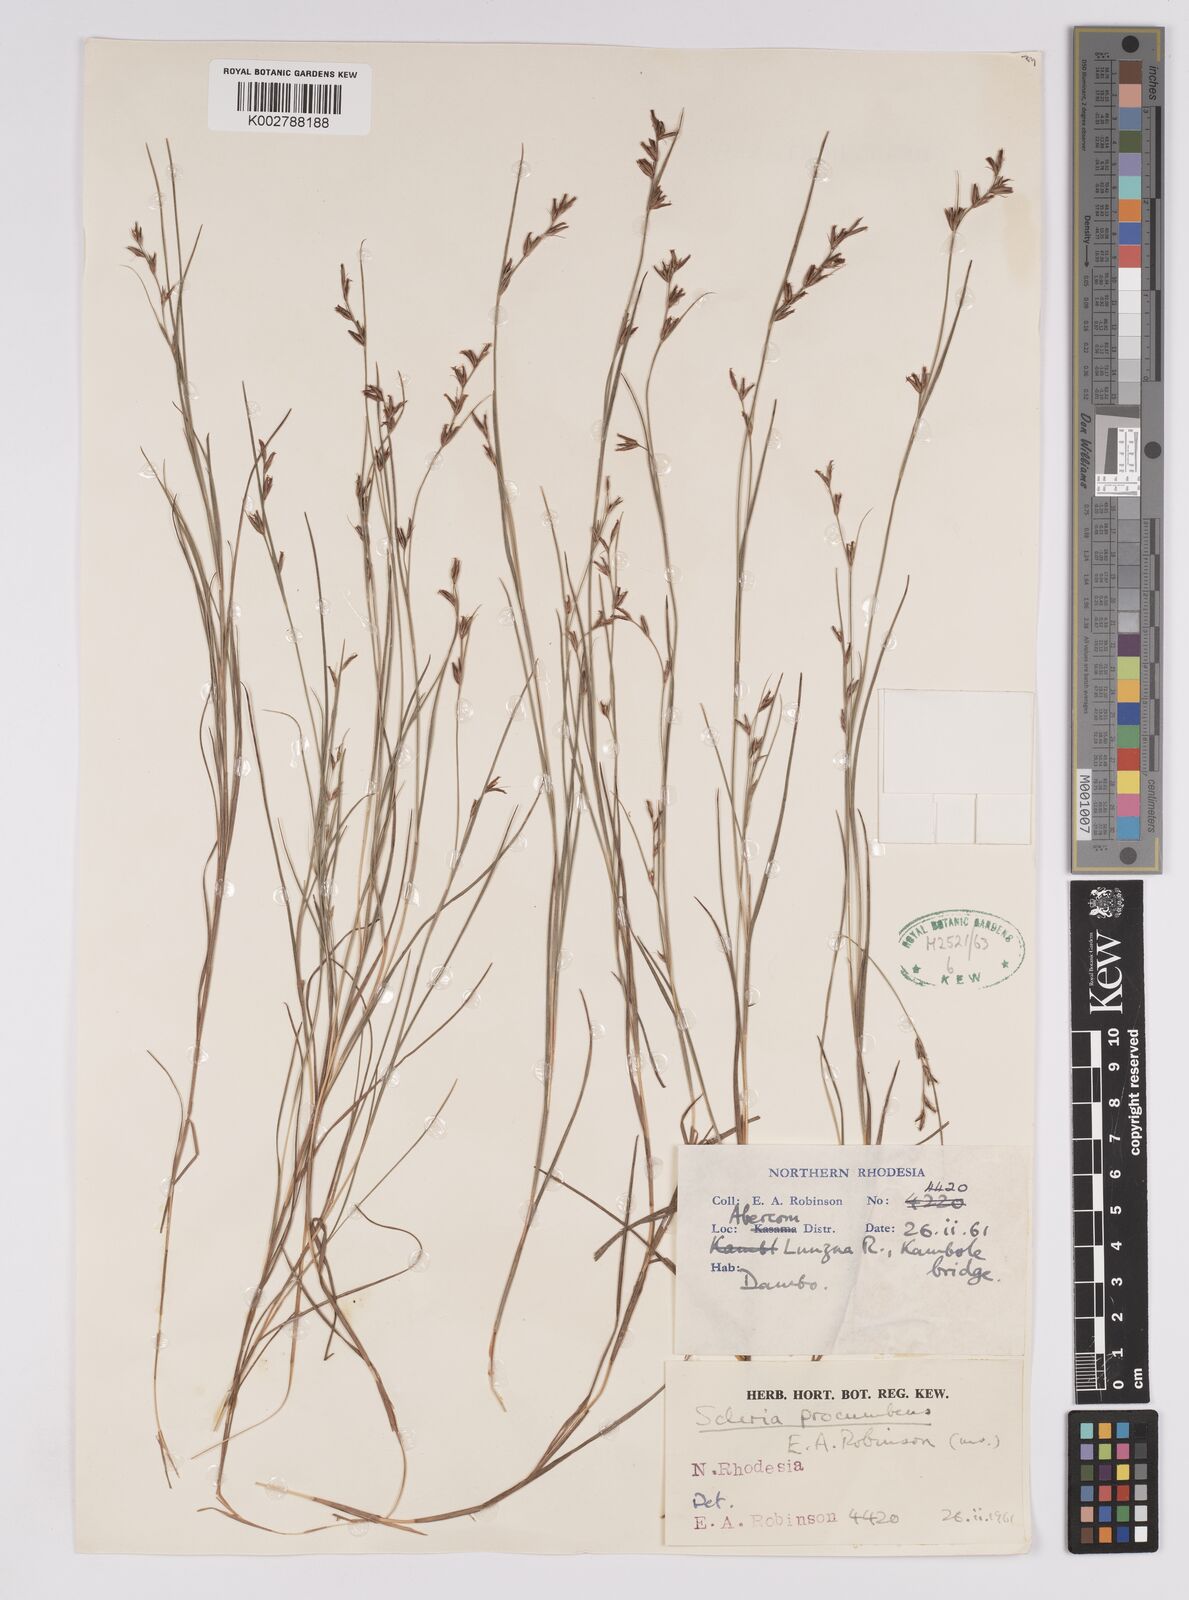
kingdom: Plantae
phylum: Tracheophyta
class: Liliopsida
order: Poales
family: Cyperaceae
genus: Scleria
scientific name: Scleria procumbens
